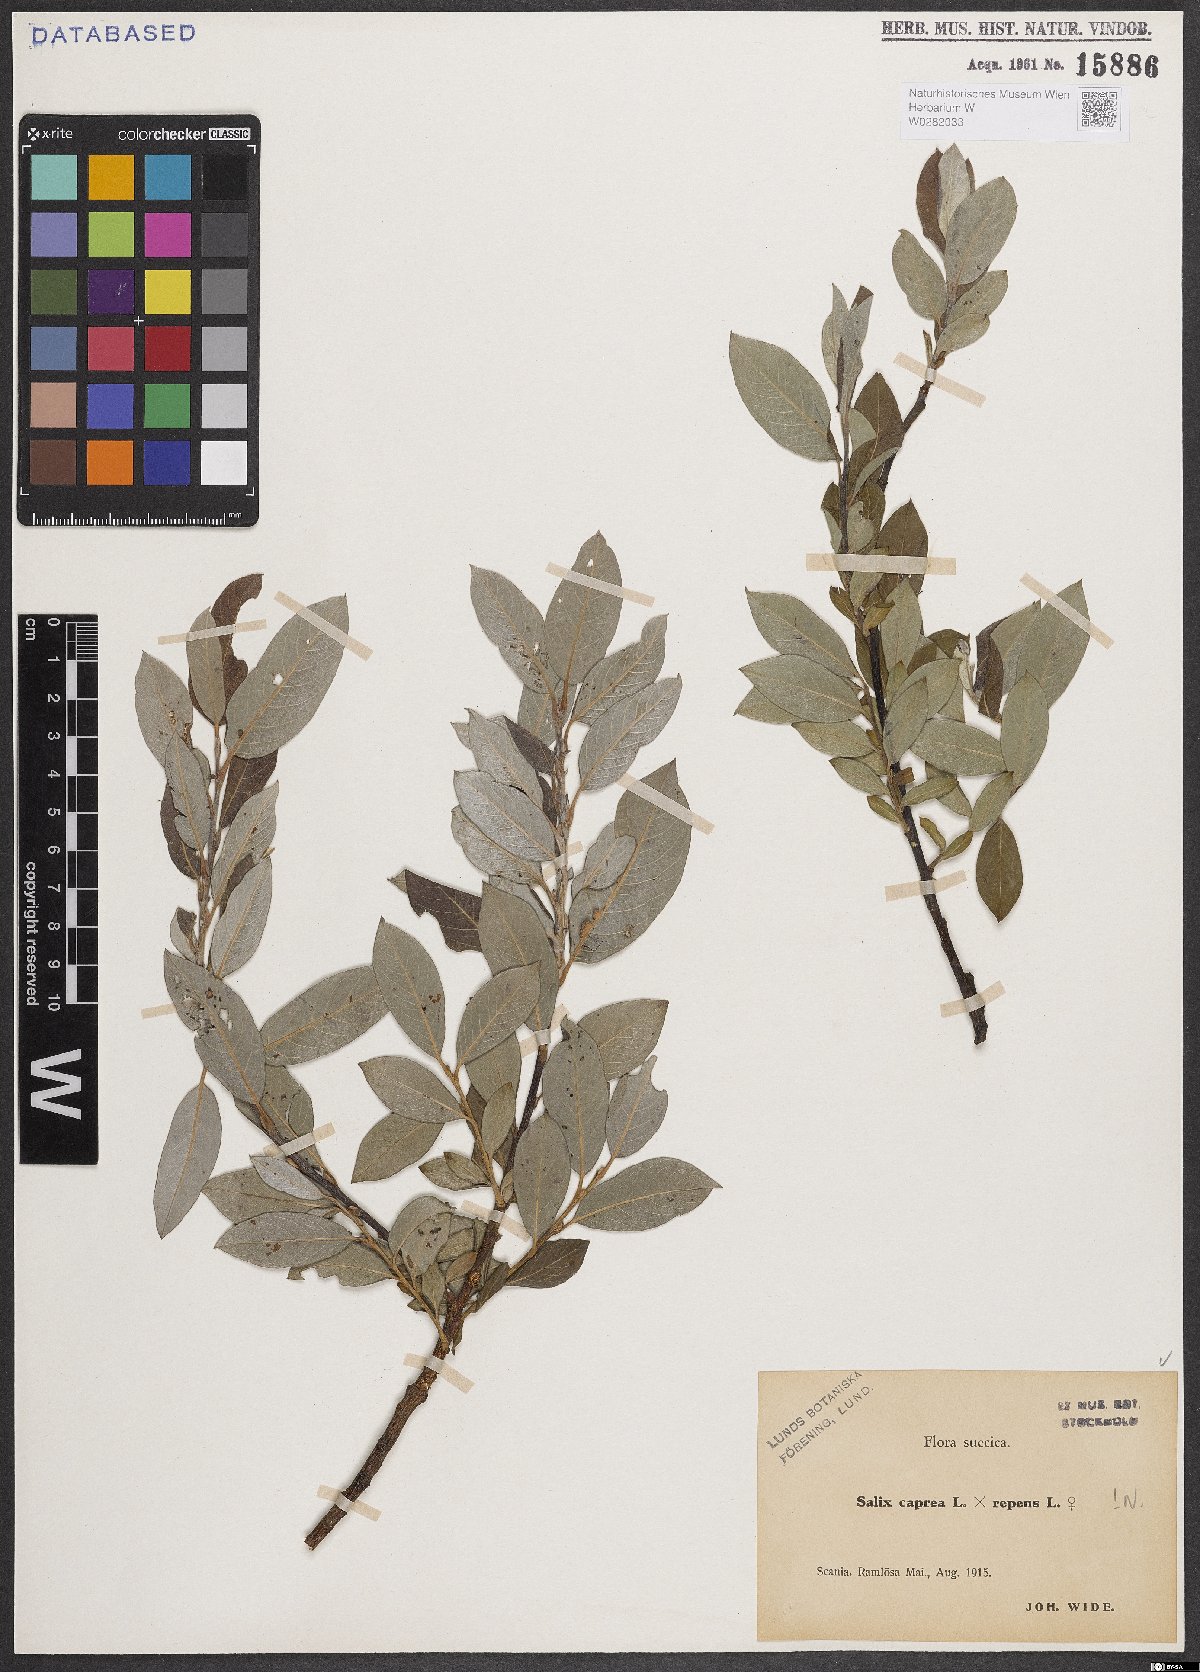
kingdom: Plantae
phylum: Tracheophyta
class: Magnoliopsida
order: Malpighiales
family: Salicaceae
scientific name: Salicaceae
